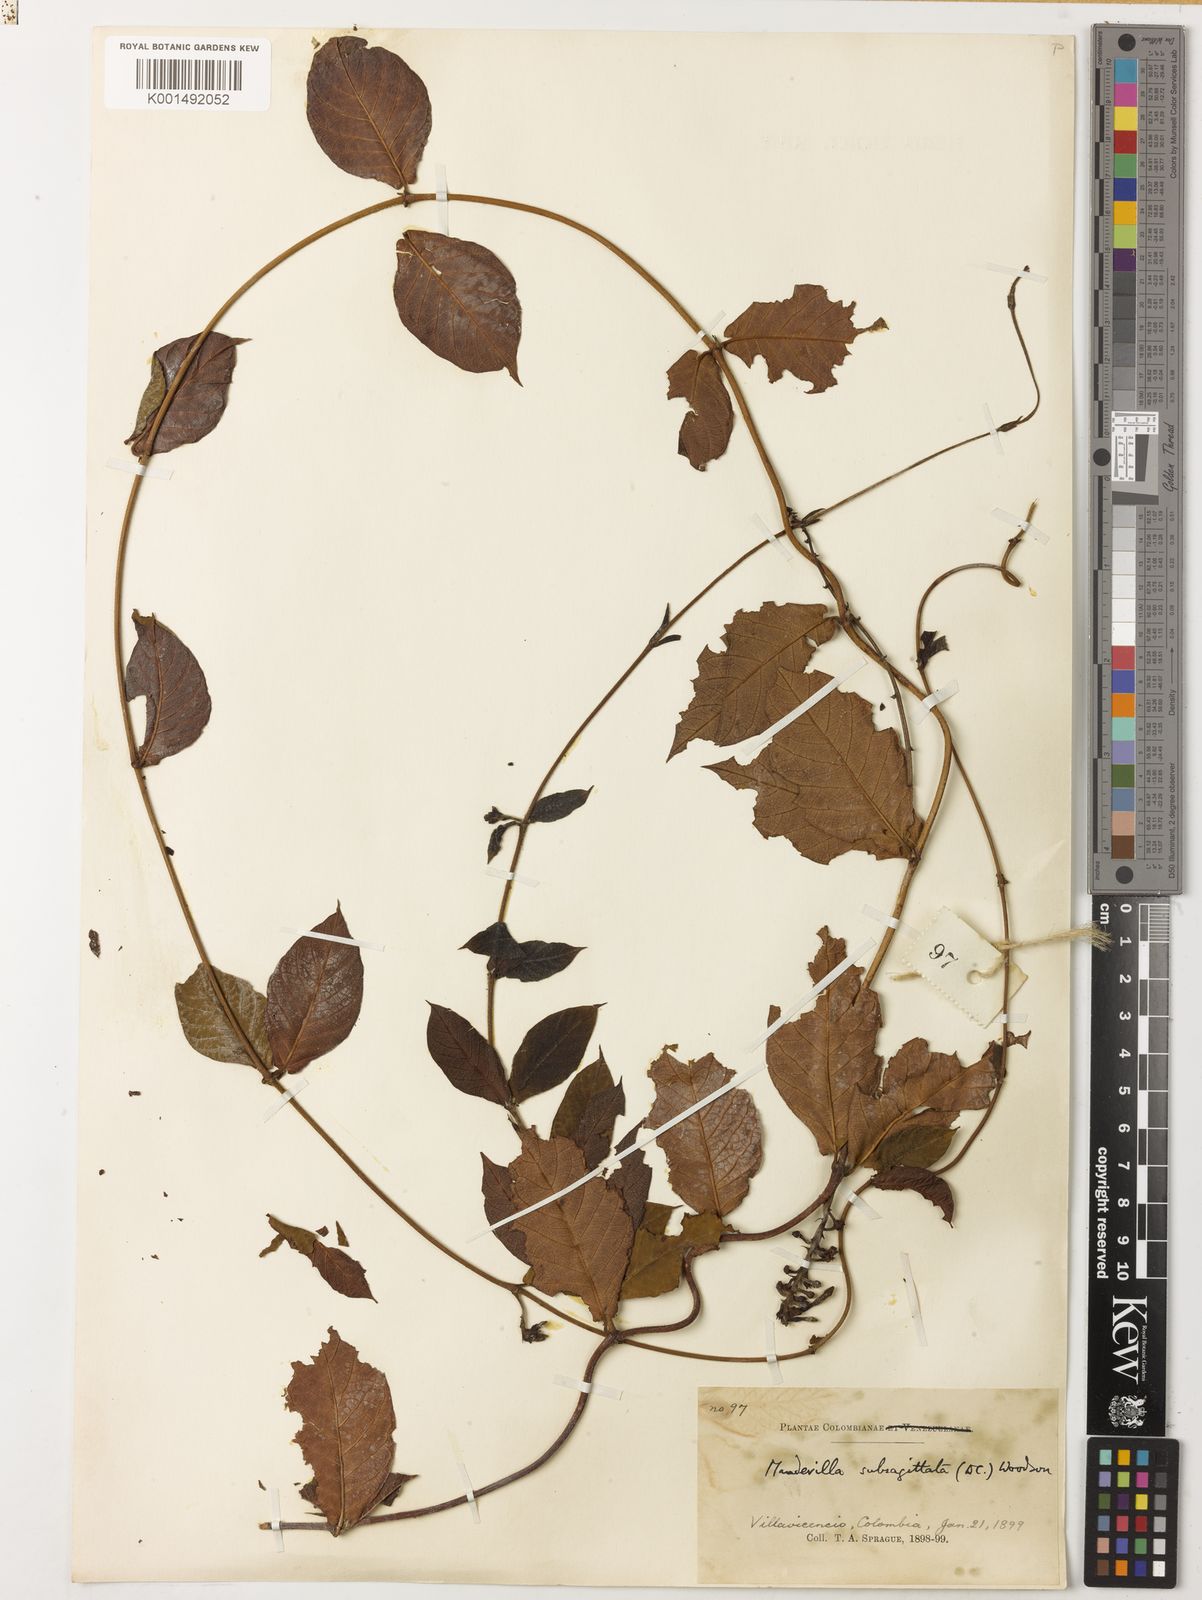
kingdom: Plantae
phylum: Tracheophyta
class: Magnoliopsida
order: Gentianales
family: Apocynaceae
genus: Mandevilla
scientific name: Mandevilla subsagittata
